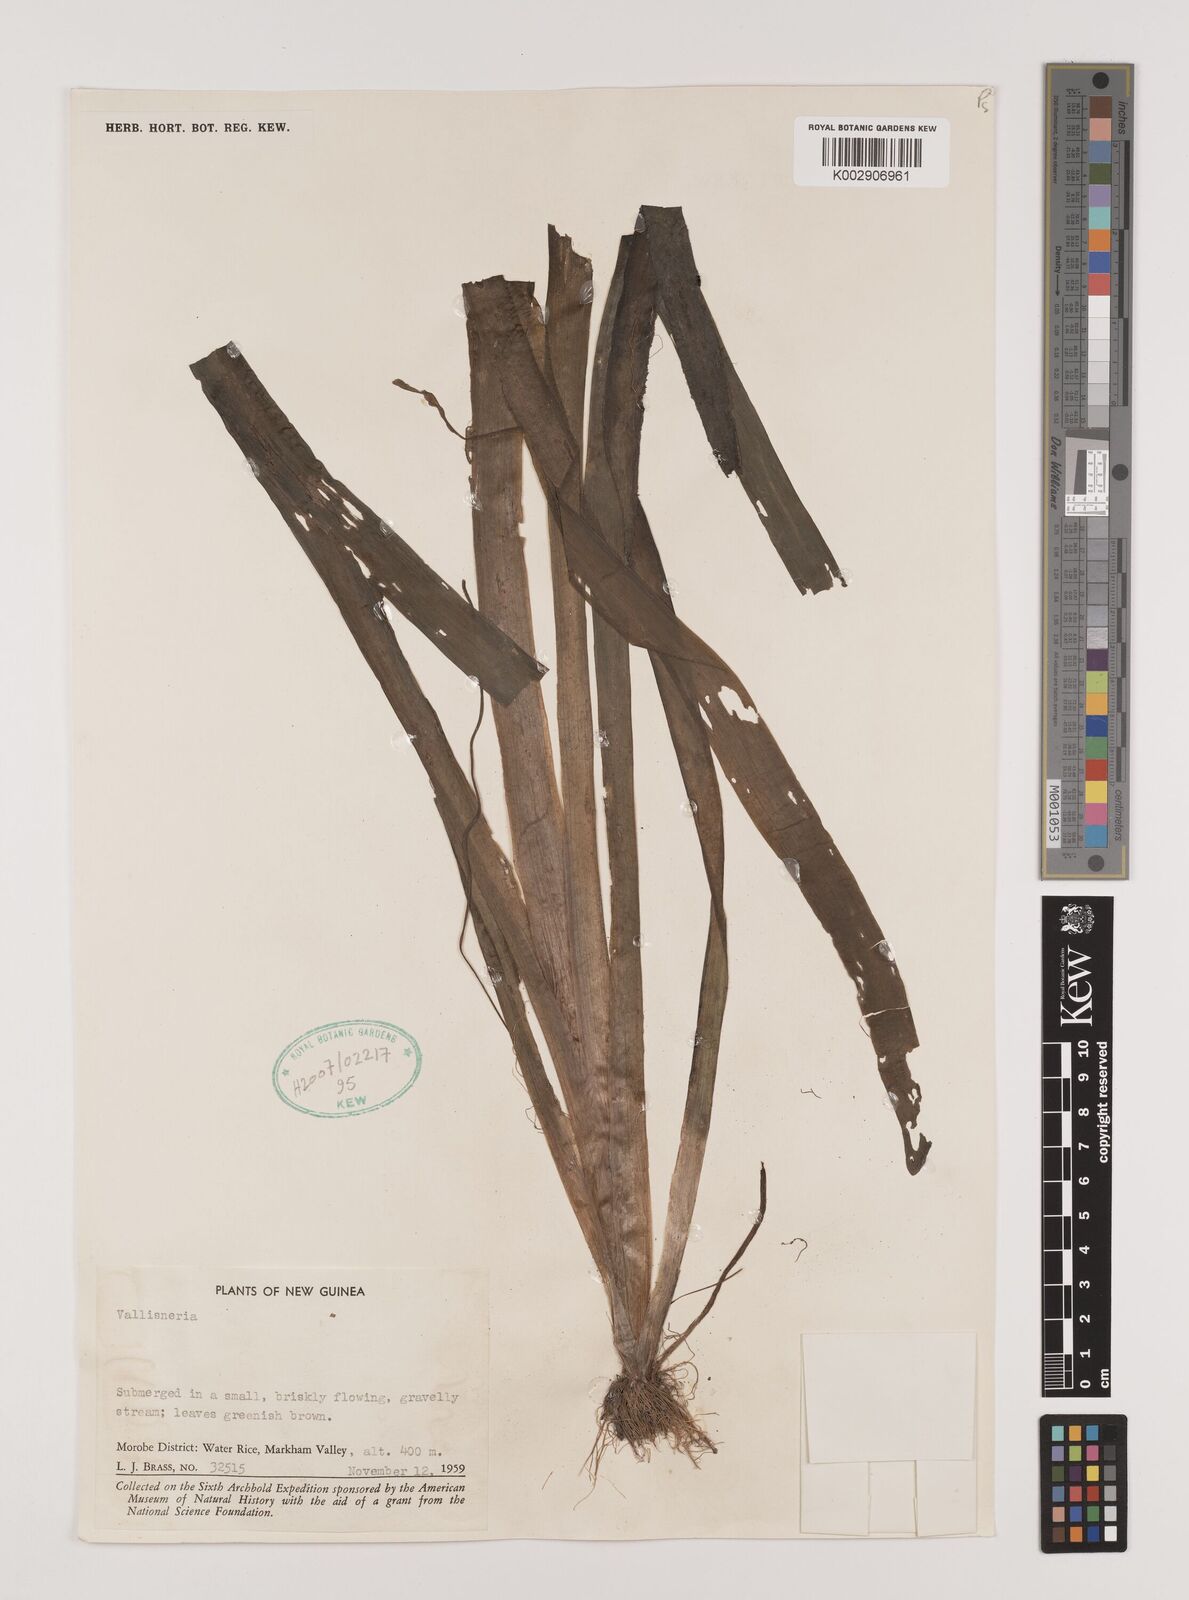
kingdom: Plantae
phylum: Tracheophyta
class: Liliopsida
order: Alismatales
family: Hydrocharitaceae
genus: Vallisneria
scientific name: Vallisneria
